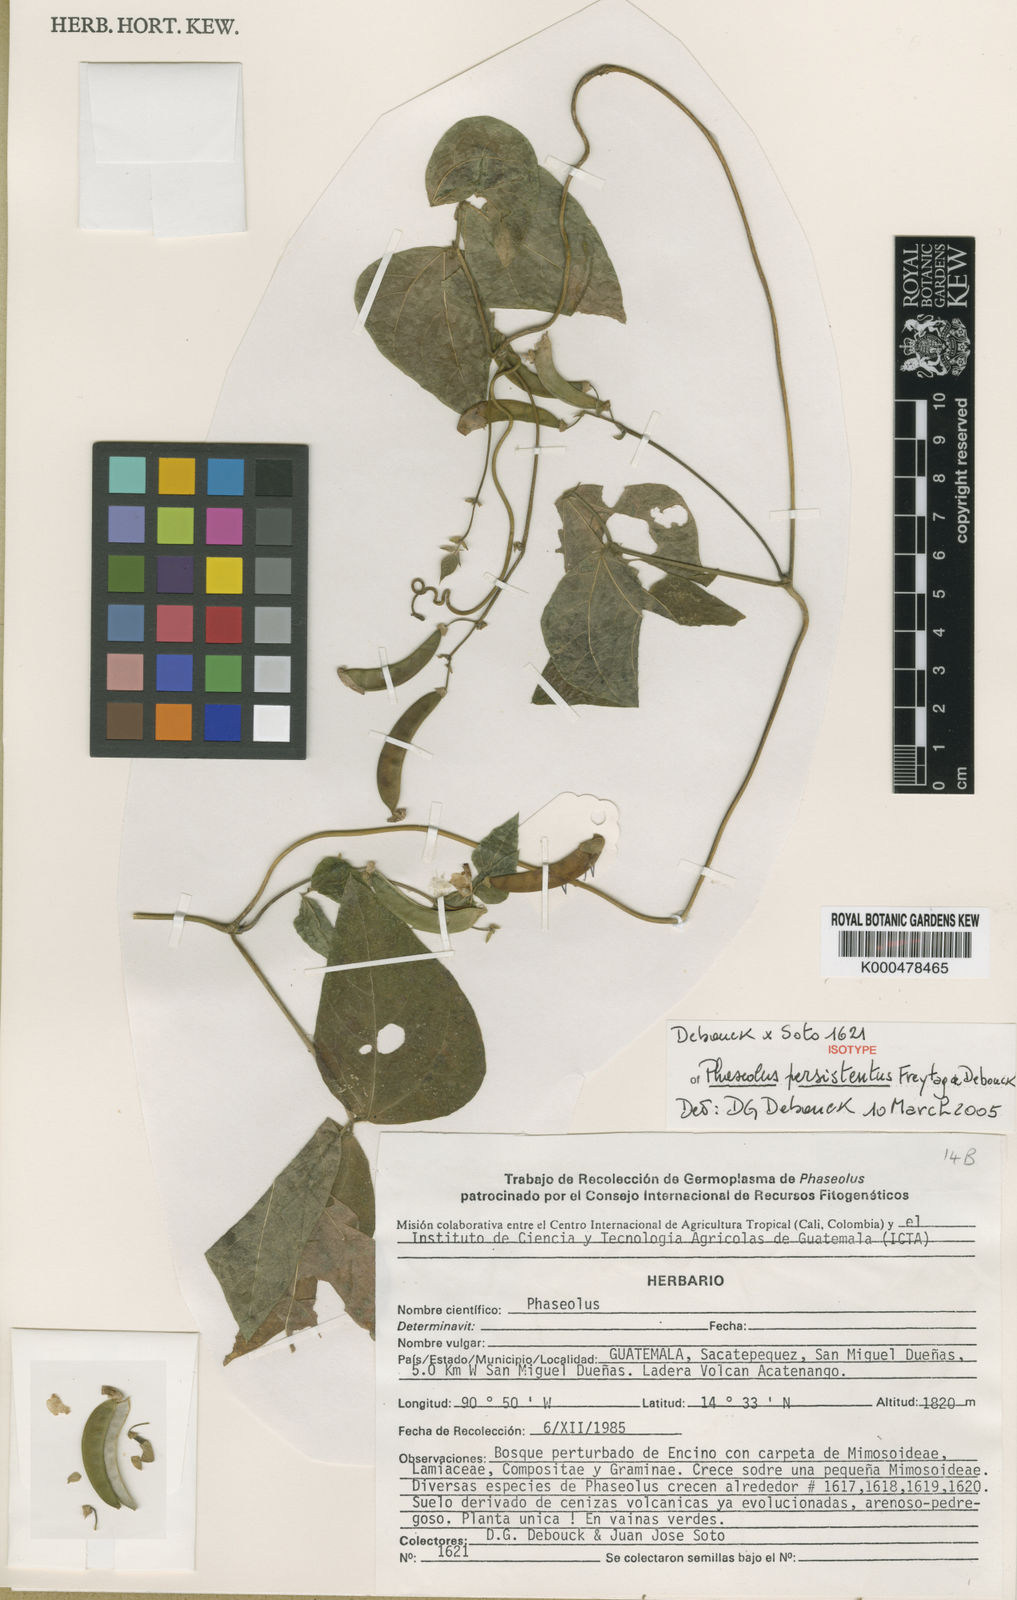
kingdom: Plantae
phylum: Tracheophyta
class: Magnoliopsida
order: Fabales
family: Fabaceae
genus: Phaseolus
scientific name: Phaseolus persistentus
